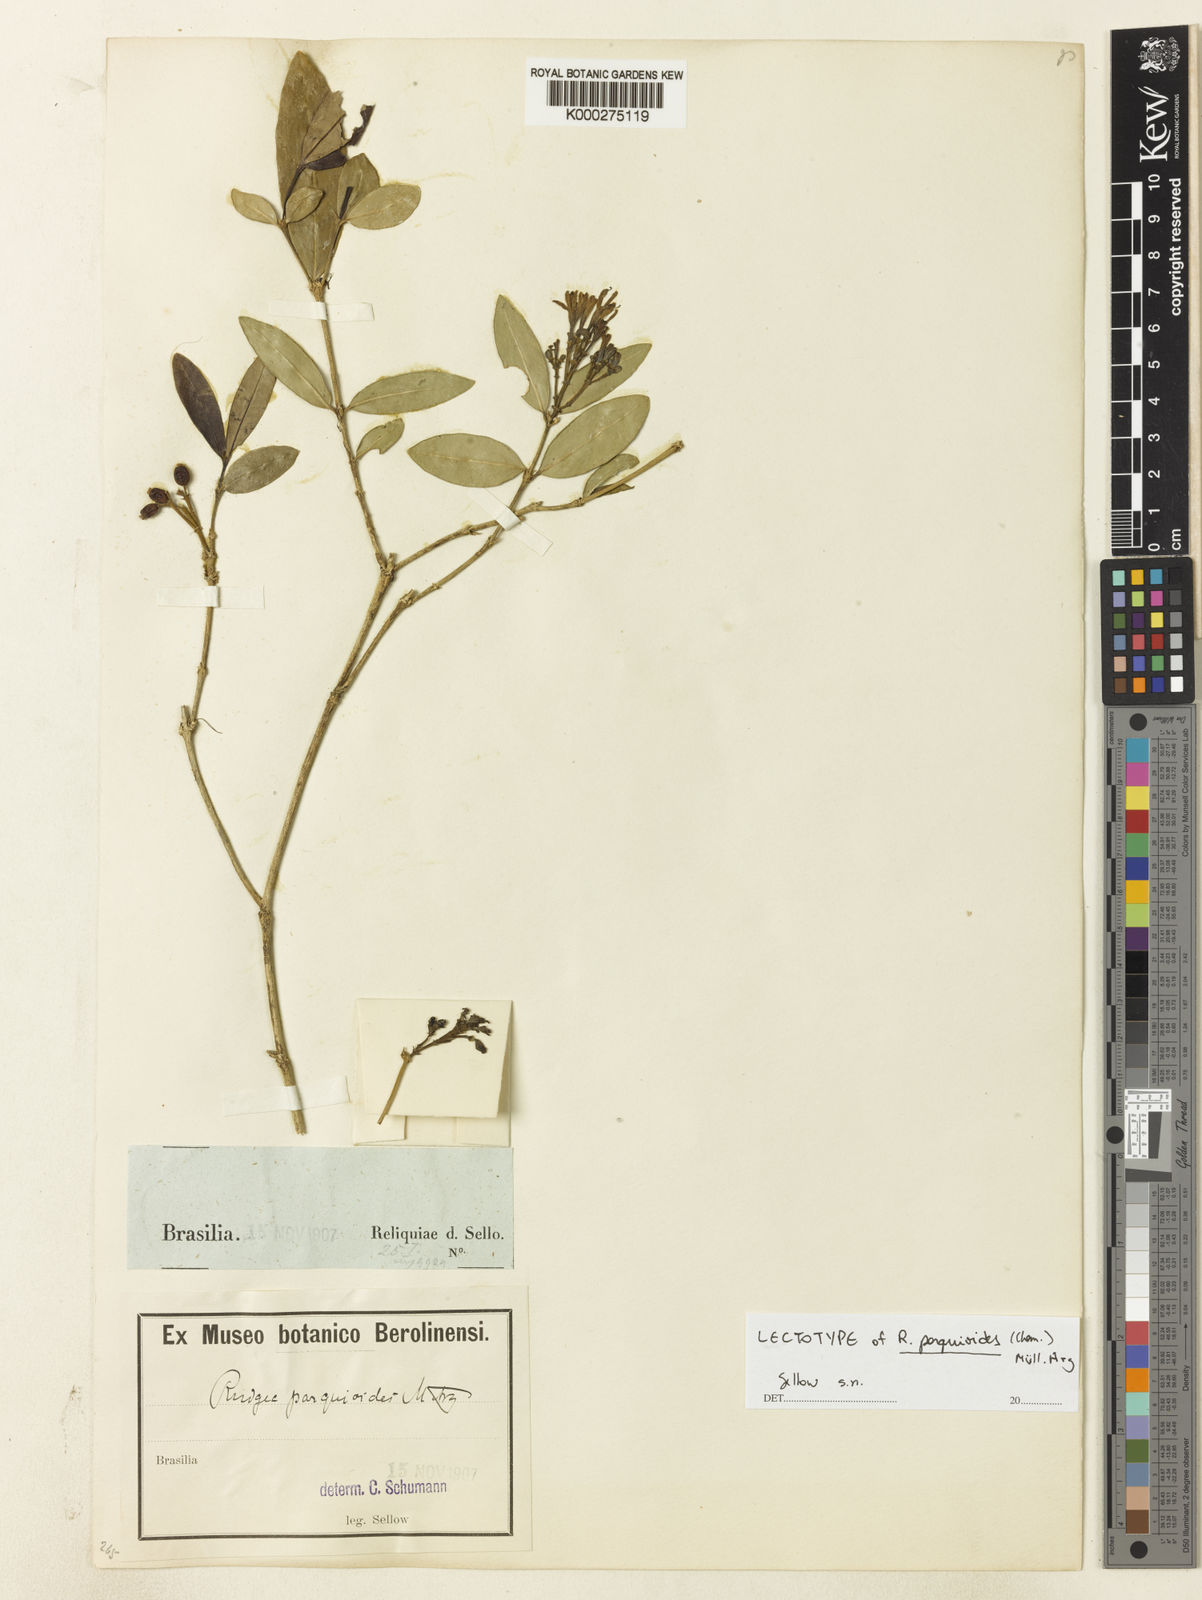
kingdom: Plantae
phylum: Tracheophyta
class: Magnoliopsida
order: Gentianales
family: Rubiaceae
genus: Rudgea
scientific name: Rudgea
